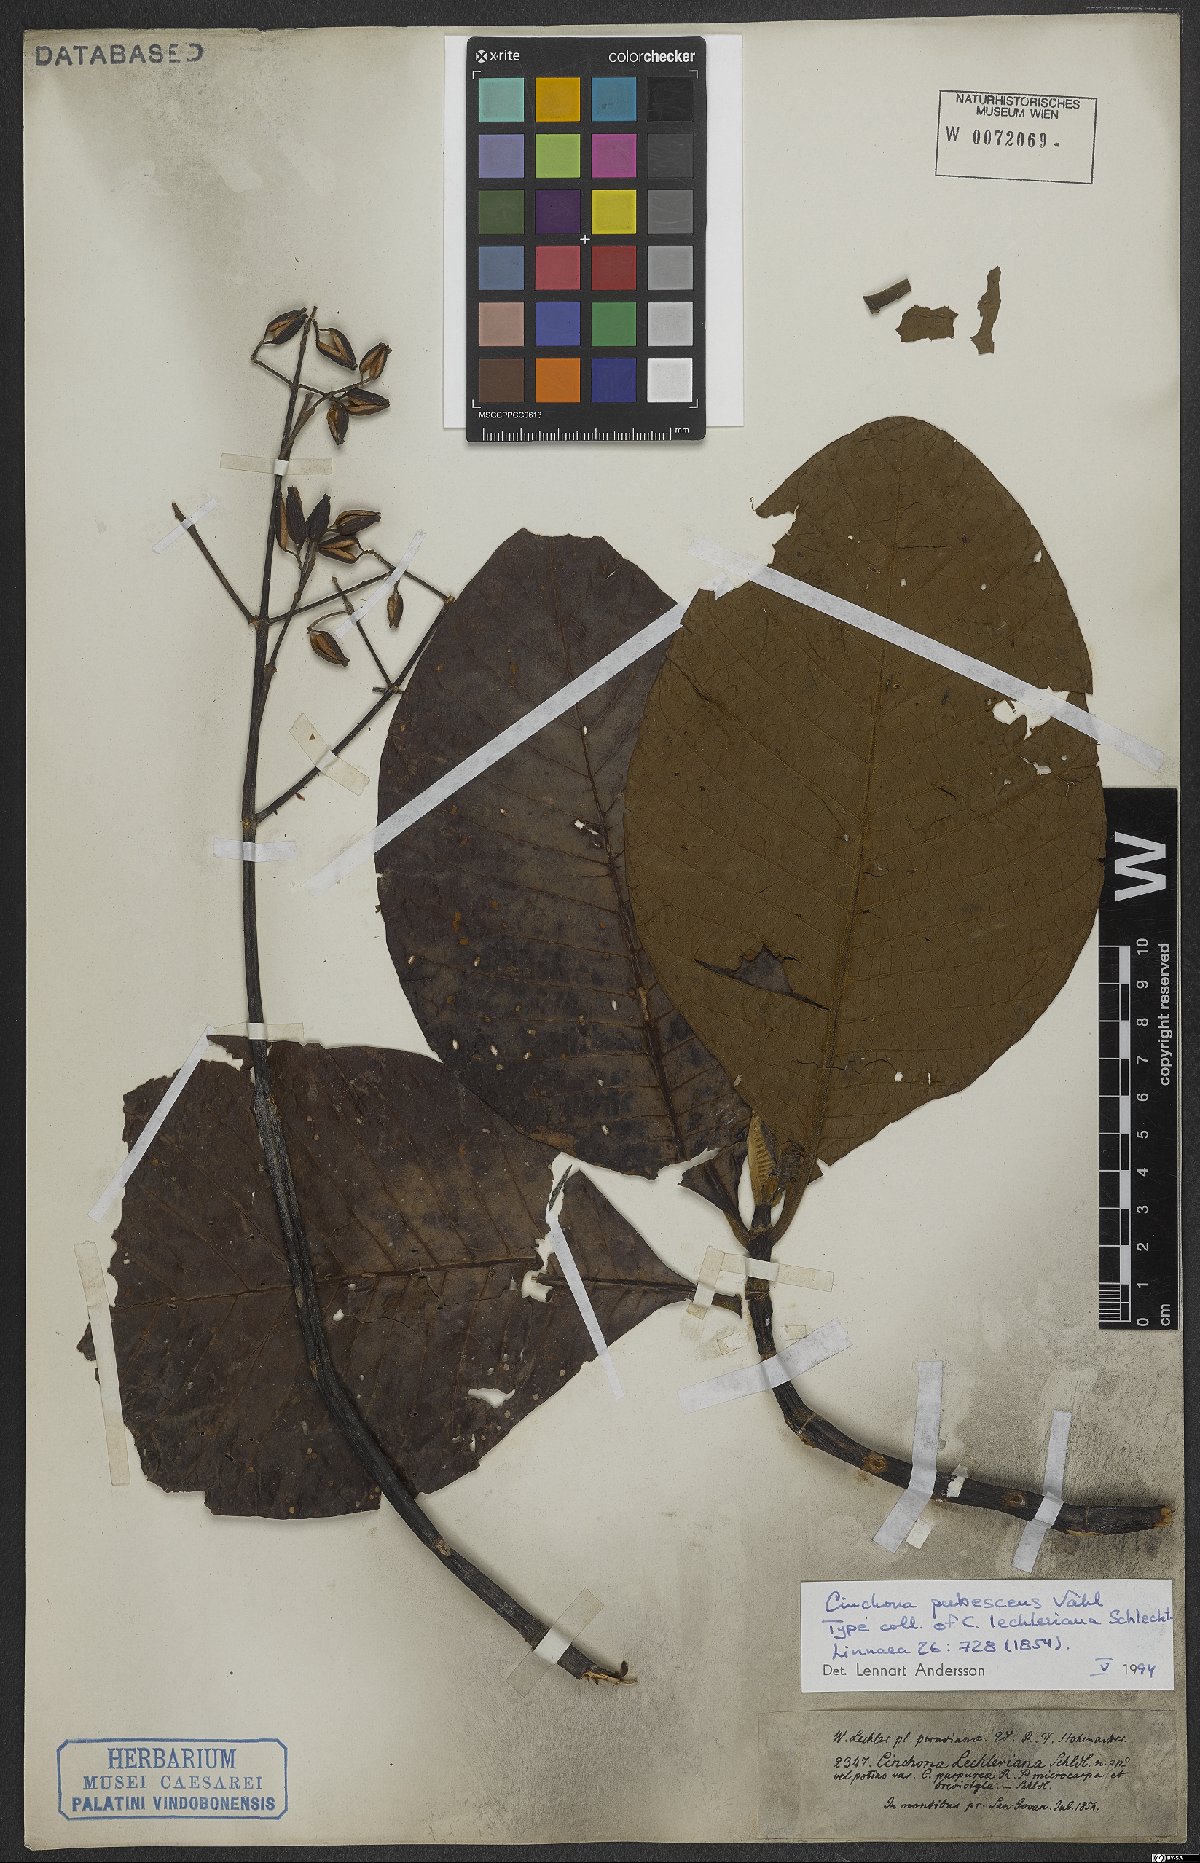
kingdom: Plantae
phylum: Tracheophyta
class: Magnoliopsida
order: Gentianales
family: Rubiaceae
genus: Cinchona
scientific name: Cinchona pubescens
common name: Quinine
